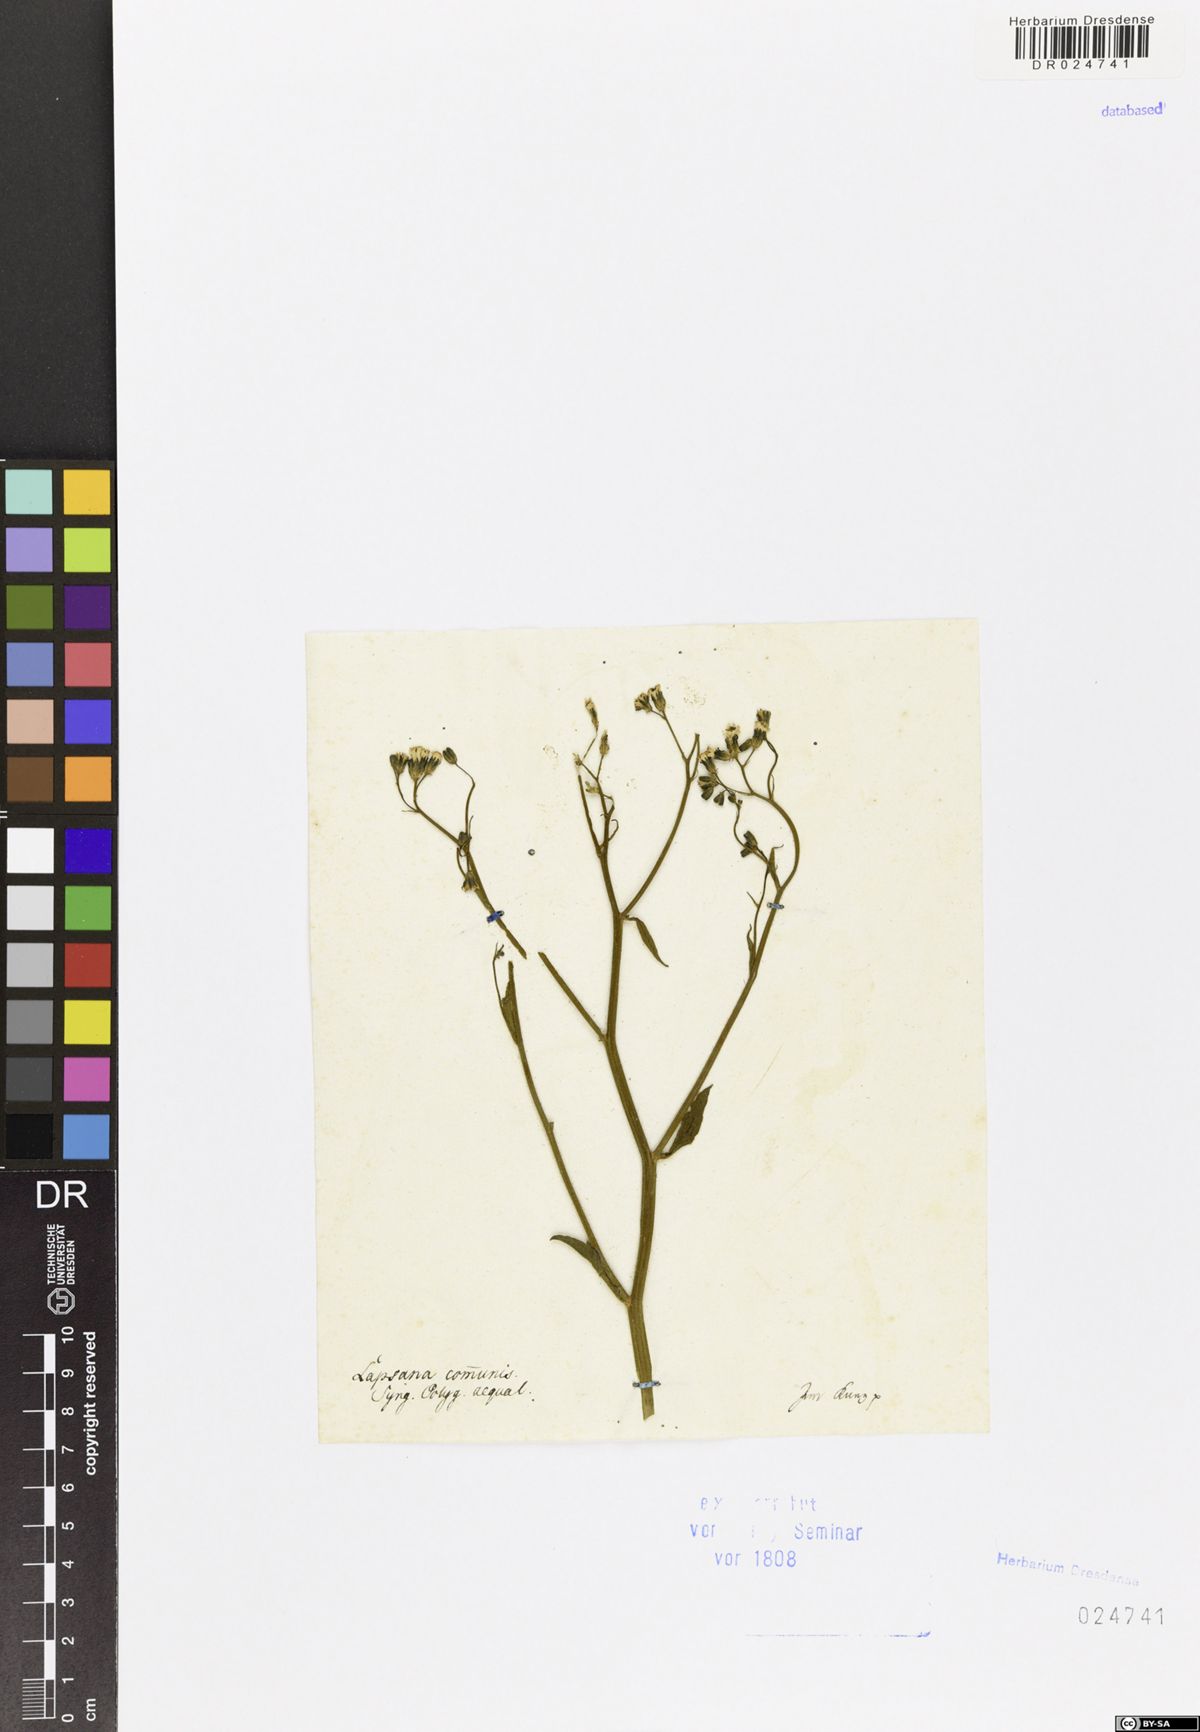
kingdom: Plantae
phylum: Tracheophyta
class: Magnoliopsida
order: Asterales
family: Asteraceae
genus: Lapsana
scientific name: Lapsana communis
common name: Nipplewort
